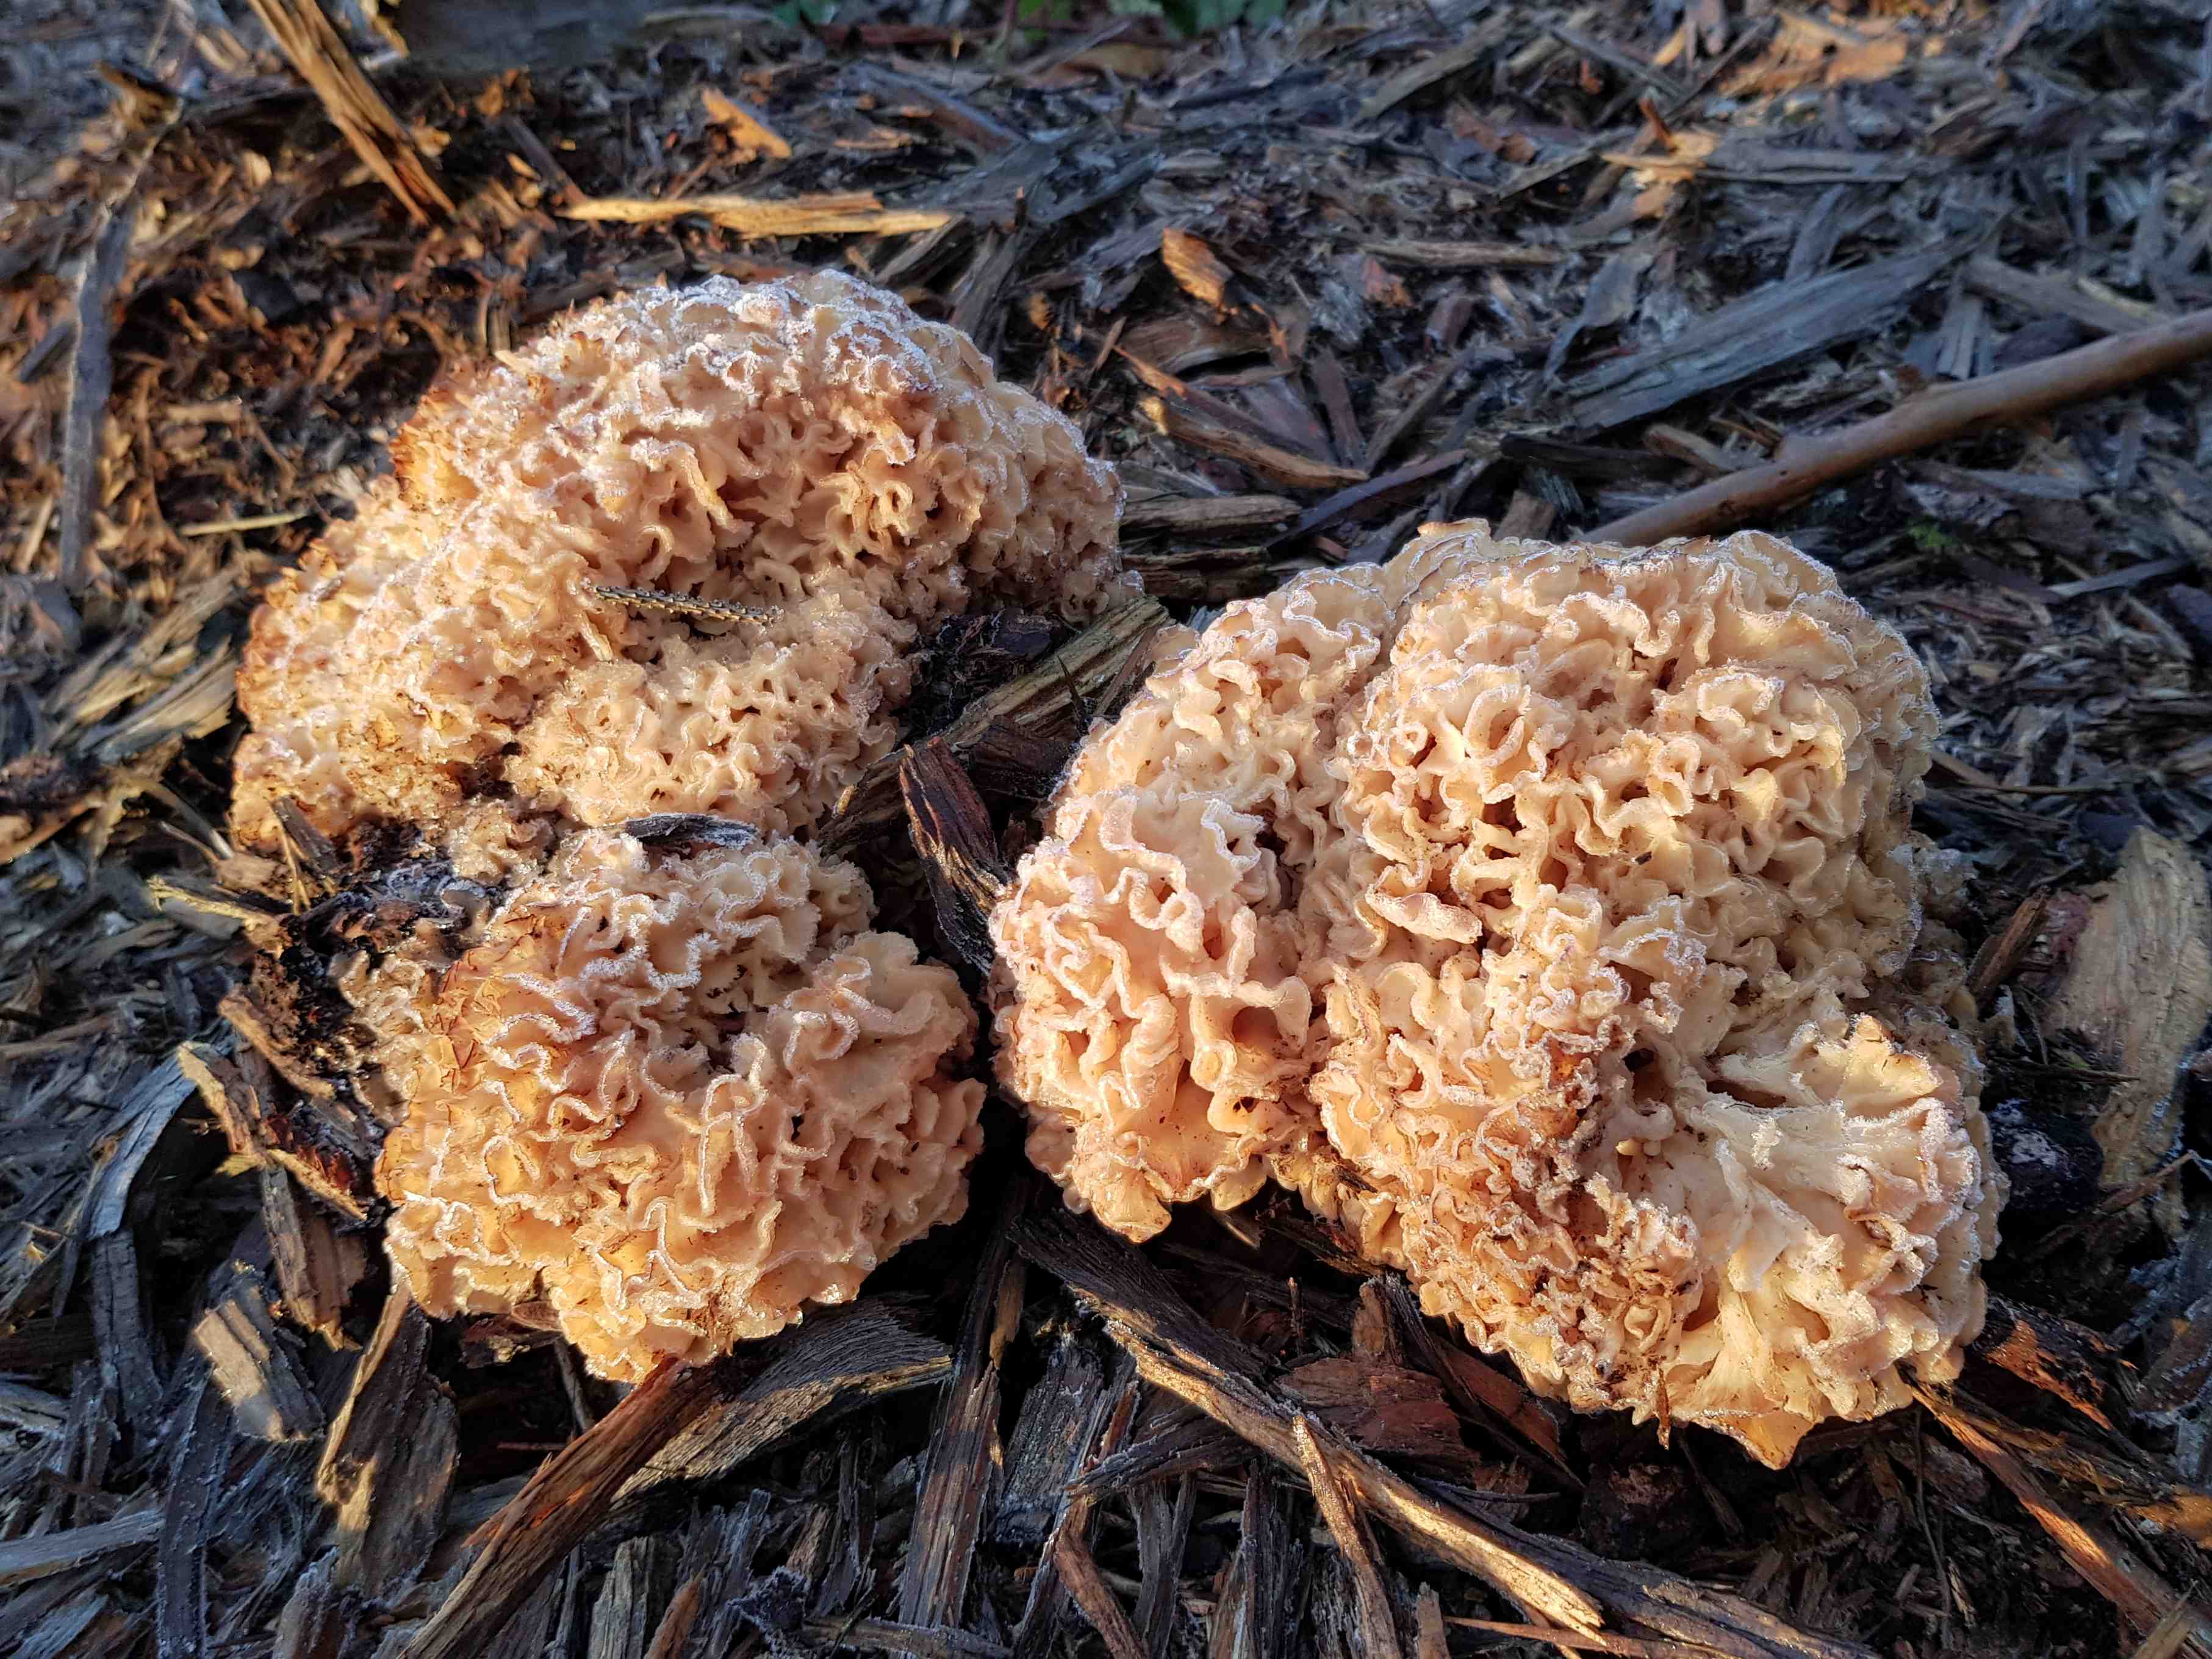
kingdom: Fungi
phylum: Basidiomycota
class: Agaricomycetes
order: Polyporales
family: Sparassidaceae
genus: Sparassis
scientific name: Sparassis crispa
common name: kruset blomkålssvamp
